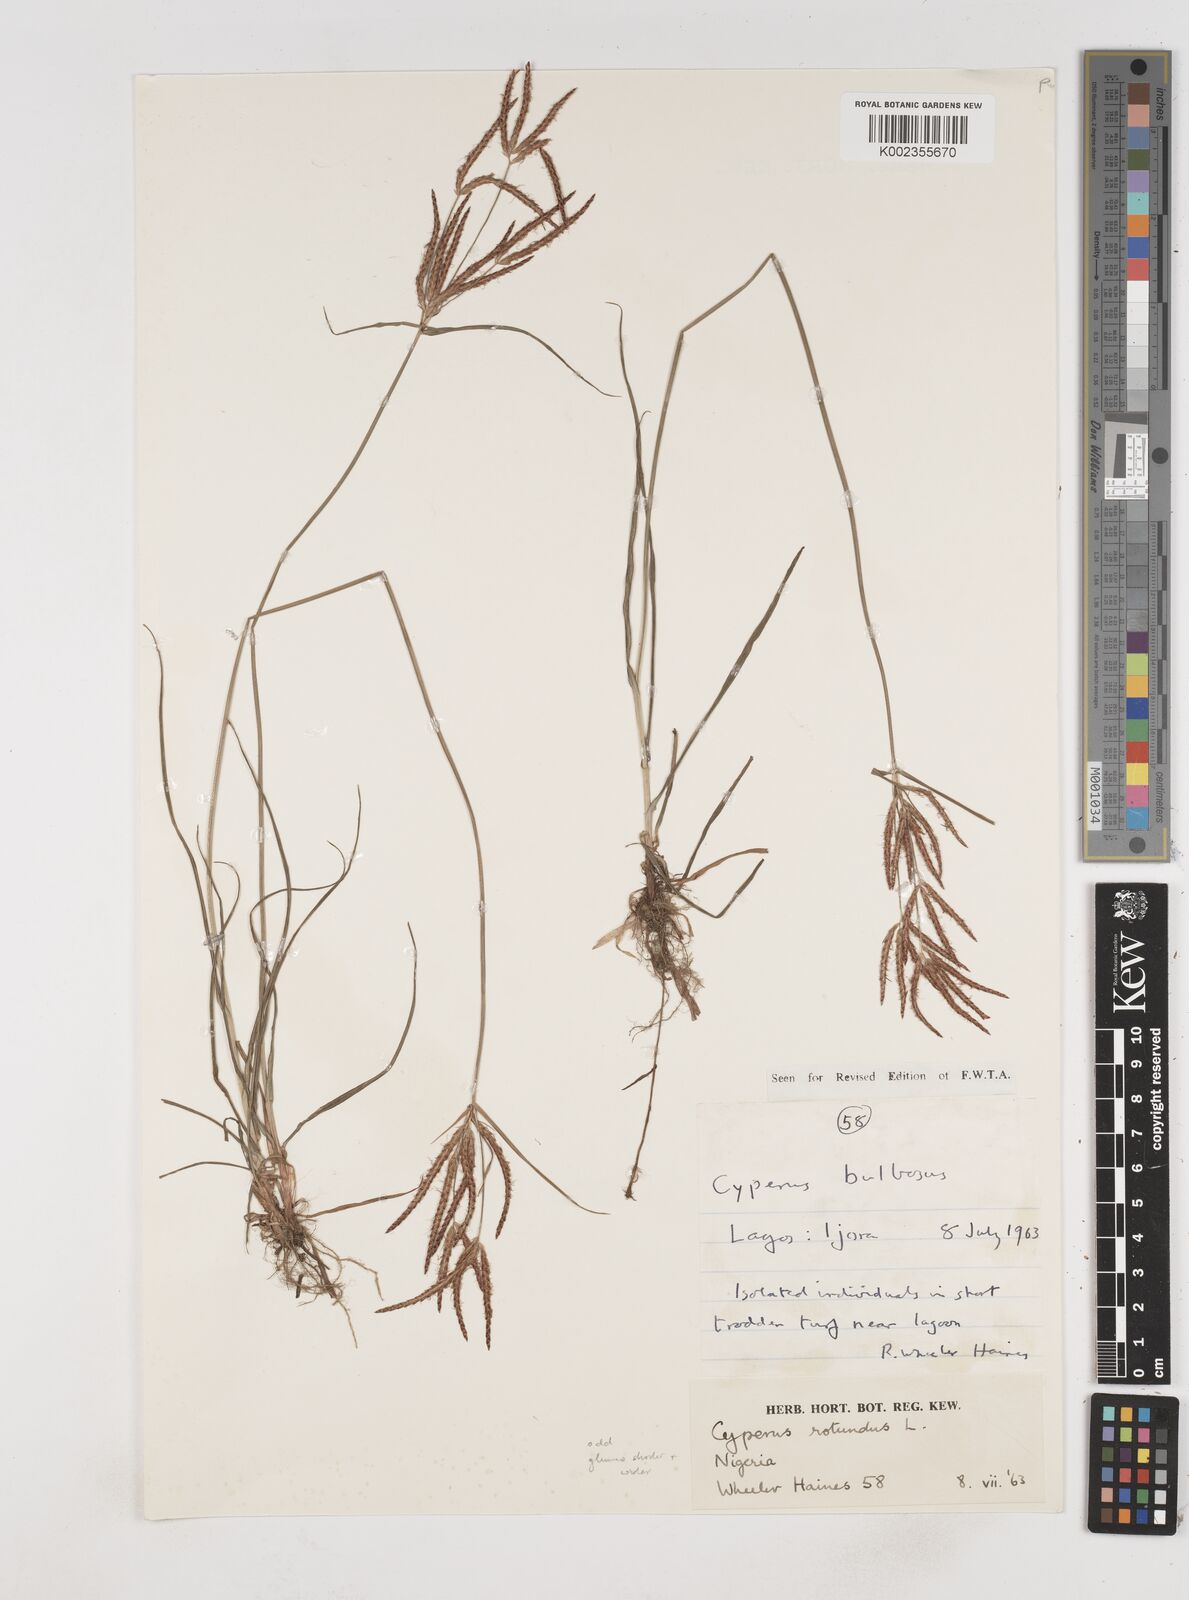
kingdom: Plantae
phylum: Tracheophyta
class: Liliopsida
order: Poales
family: Cyperaceae
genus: Cyperus
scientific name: Cyperus rotundus
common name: Nutgrass
